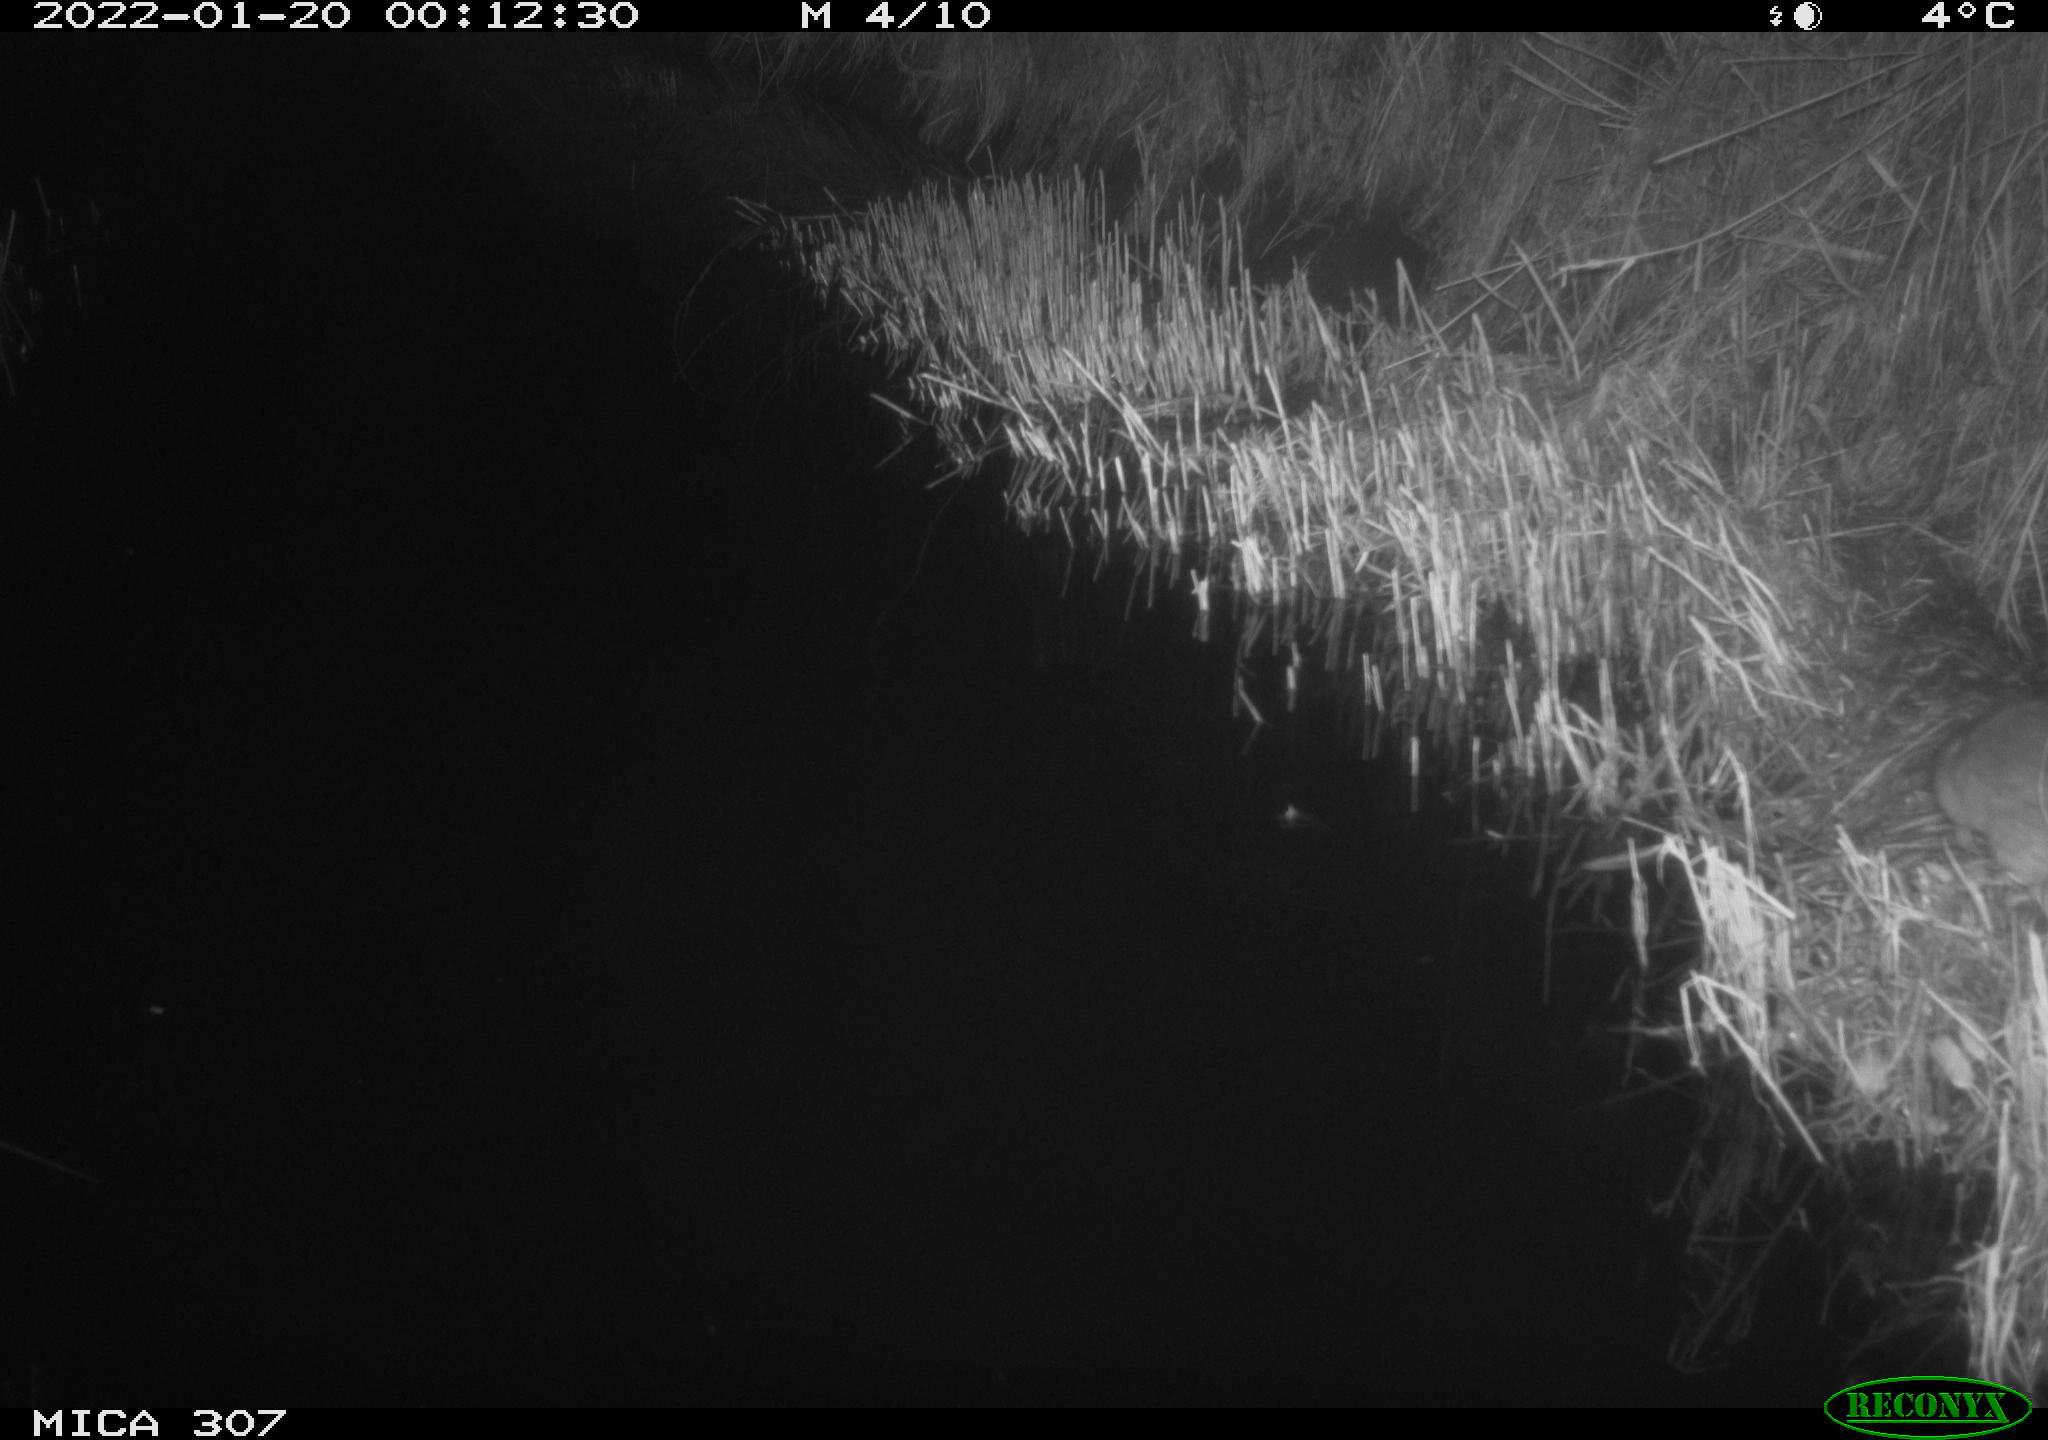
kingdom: Animalia
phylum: Chordata
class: Mammalia
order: Rodentia
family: Muridae
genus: Rattus
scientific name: Rattus norvegicus
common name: Brown rat
